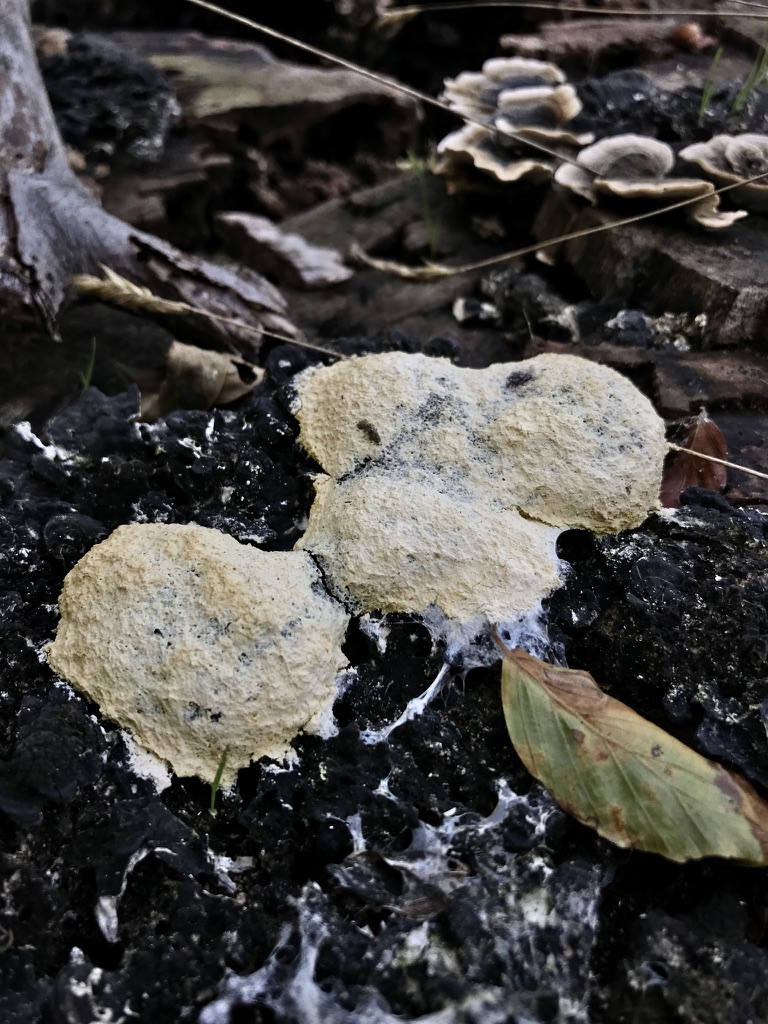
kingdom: Protozoa
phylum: Mycetozoa
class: Myxomycetes
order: Physarales
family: Physaraceae
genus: Fuligo
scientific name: Fuligo septica
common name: gul troldsmør
